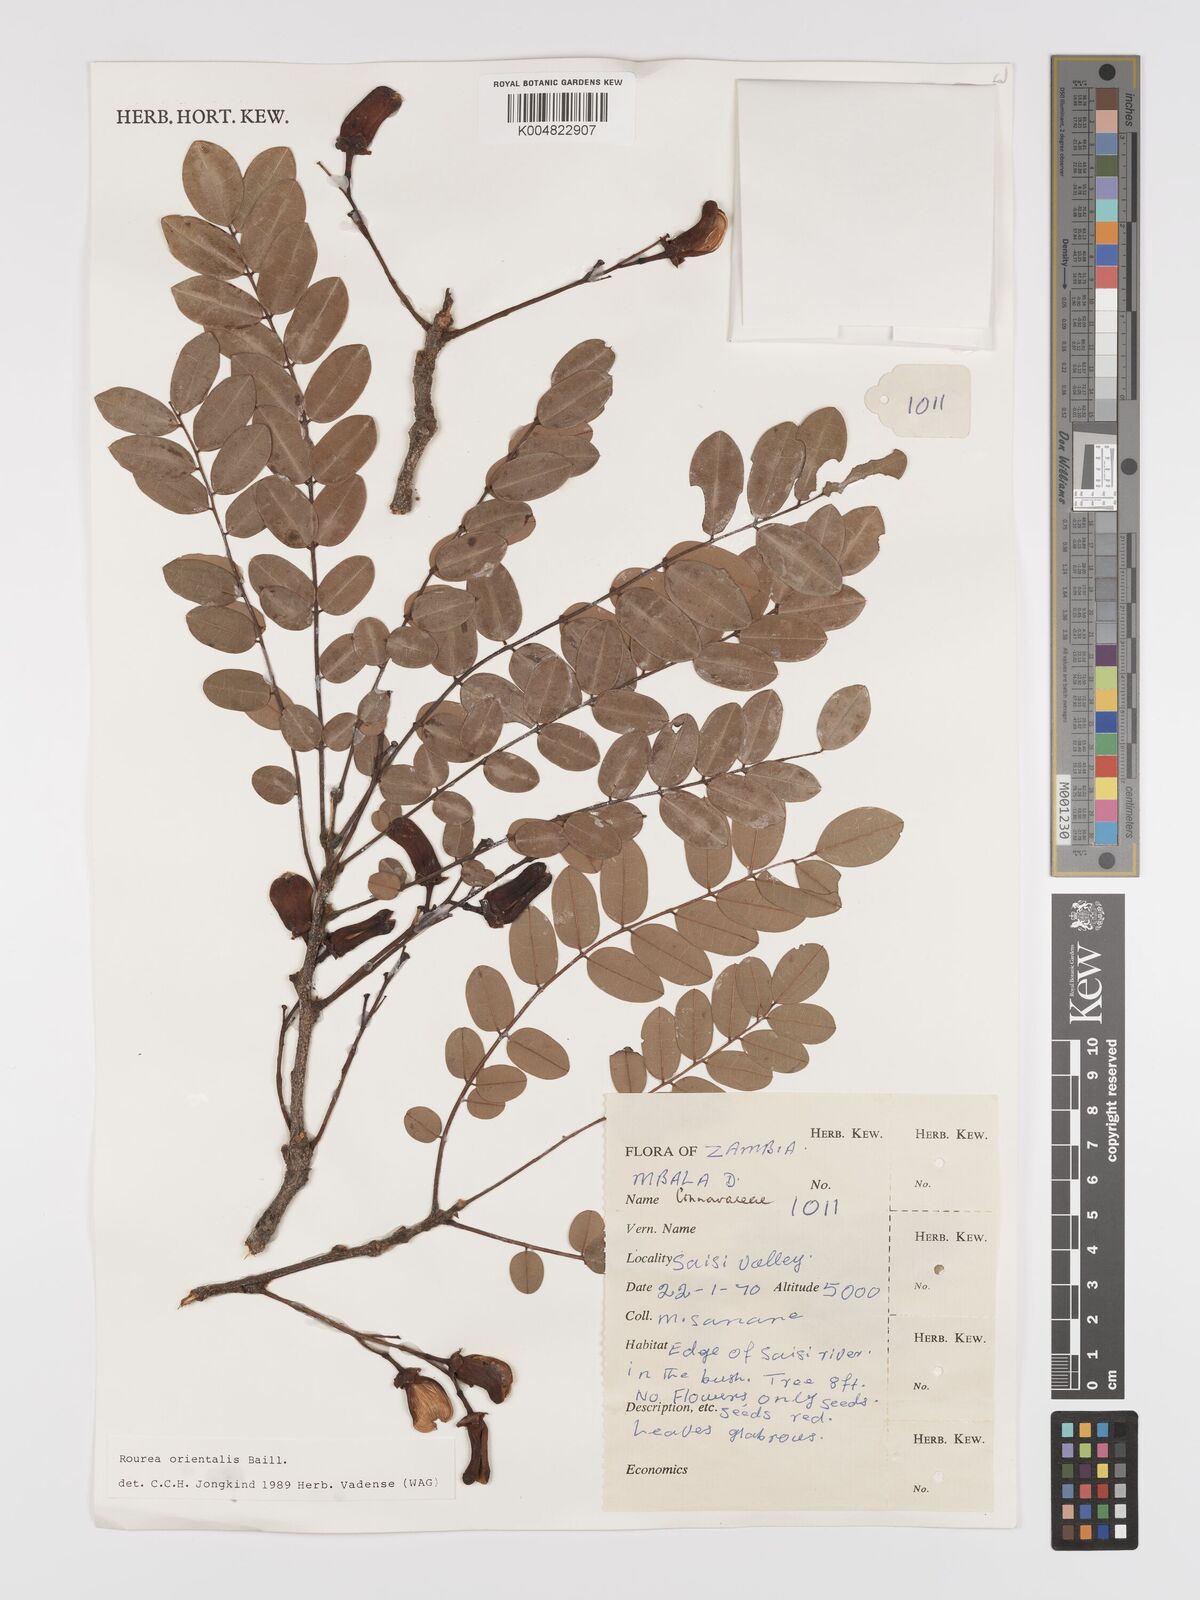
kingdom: Plantae
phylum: Tracheophyta
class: Magnoliopsida
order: Oxalidales
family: Connaraceae
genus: Rourea
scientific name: Rourea orientalis
